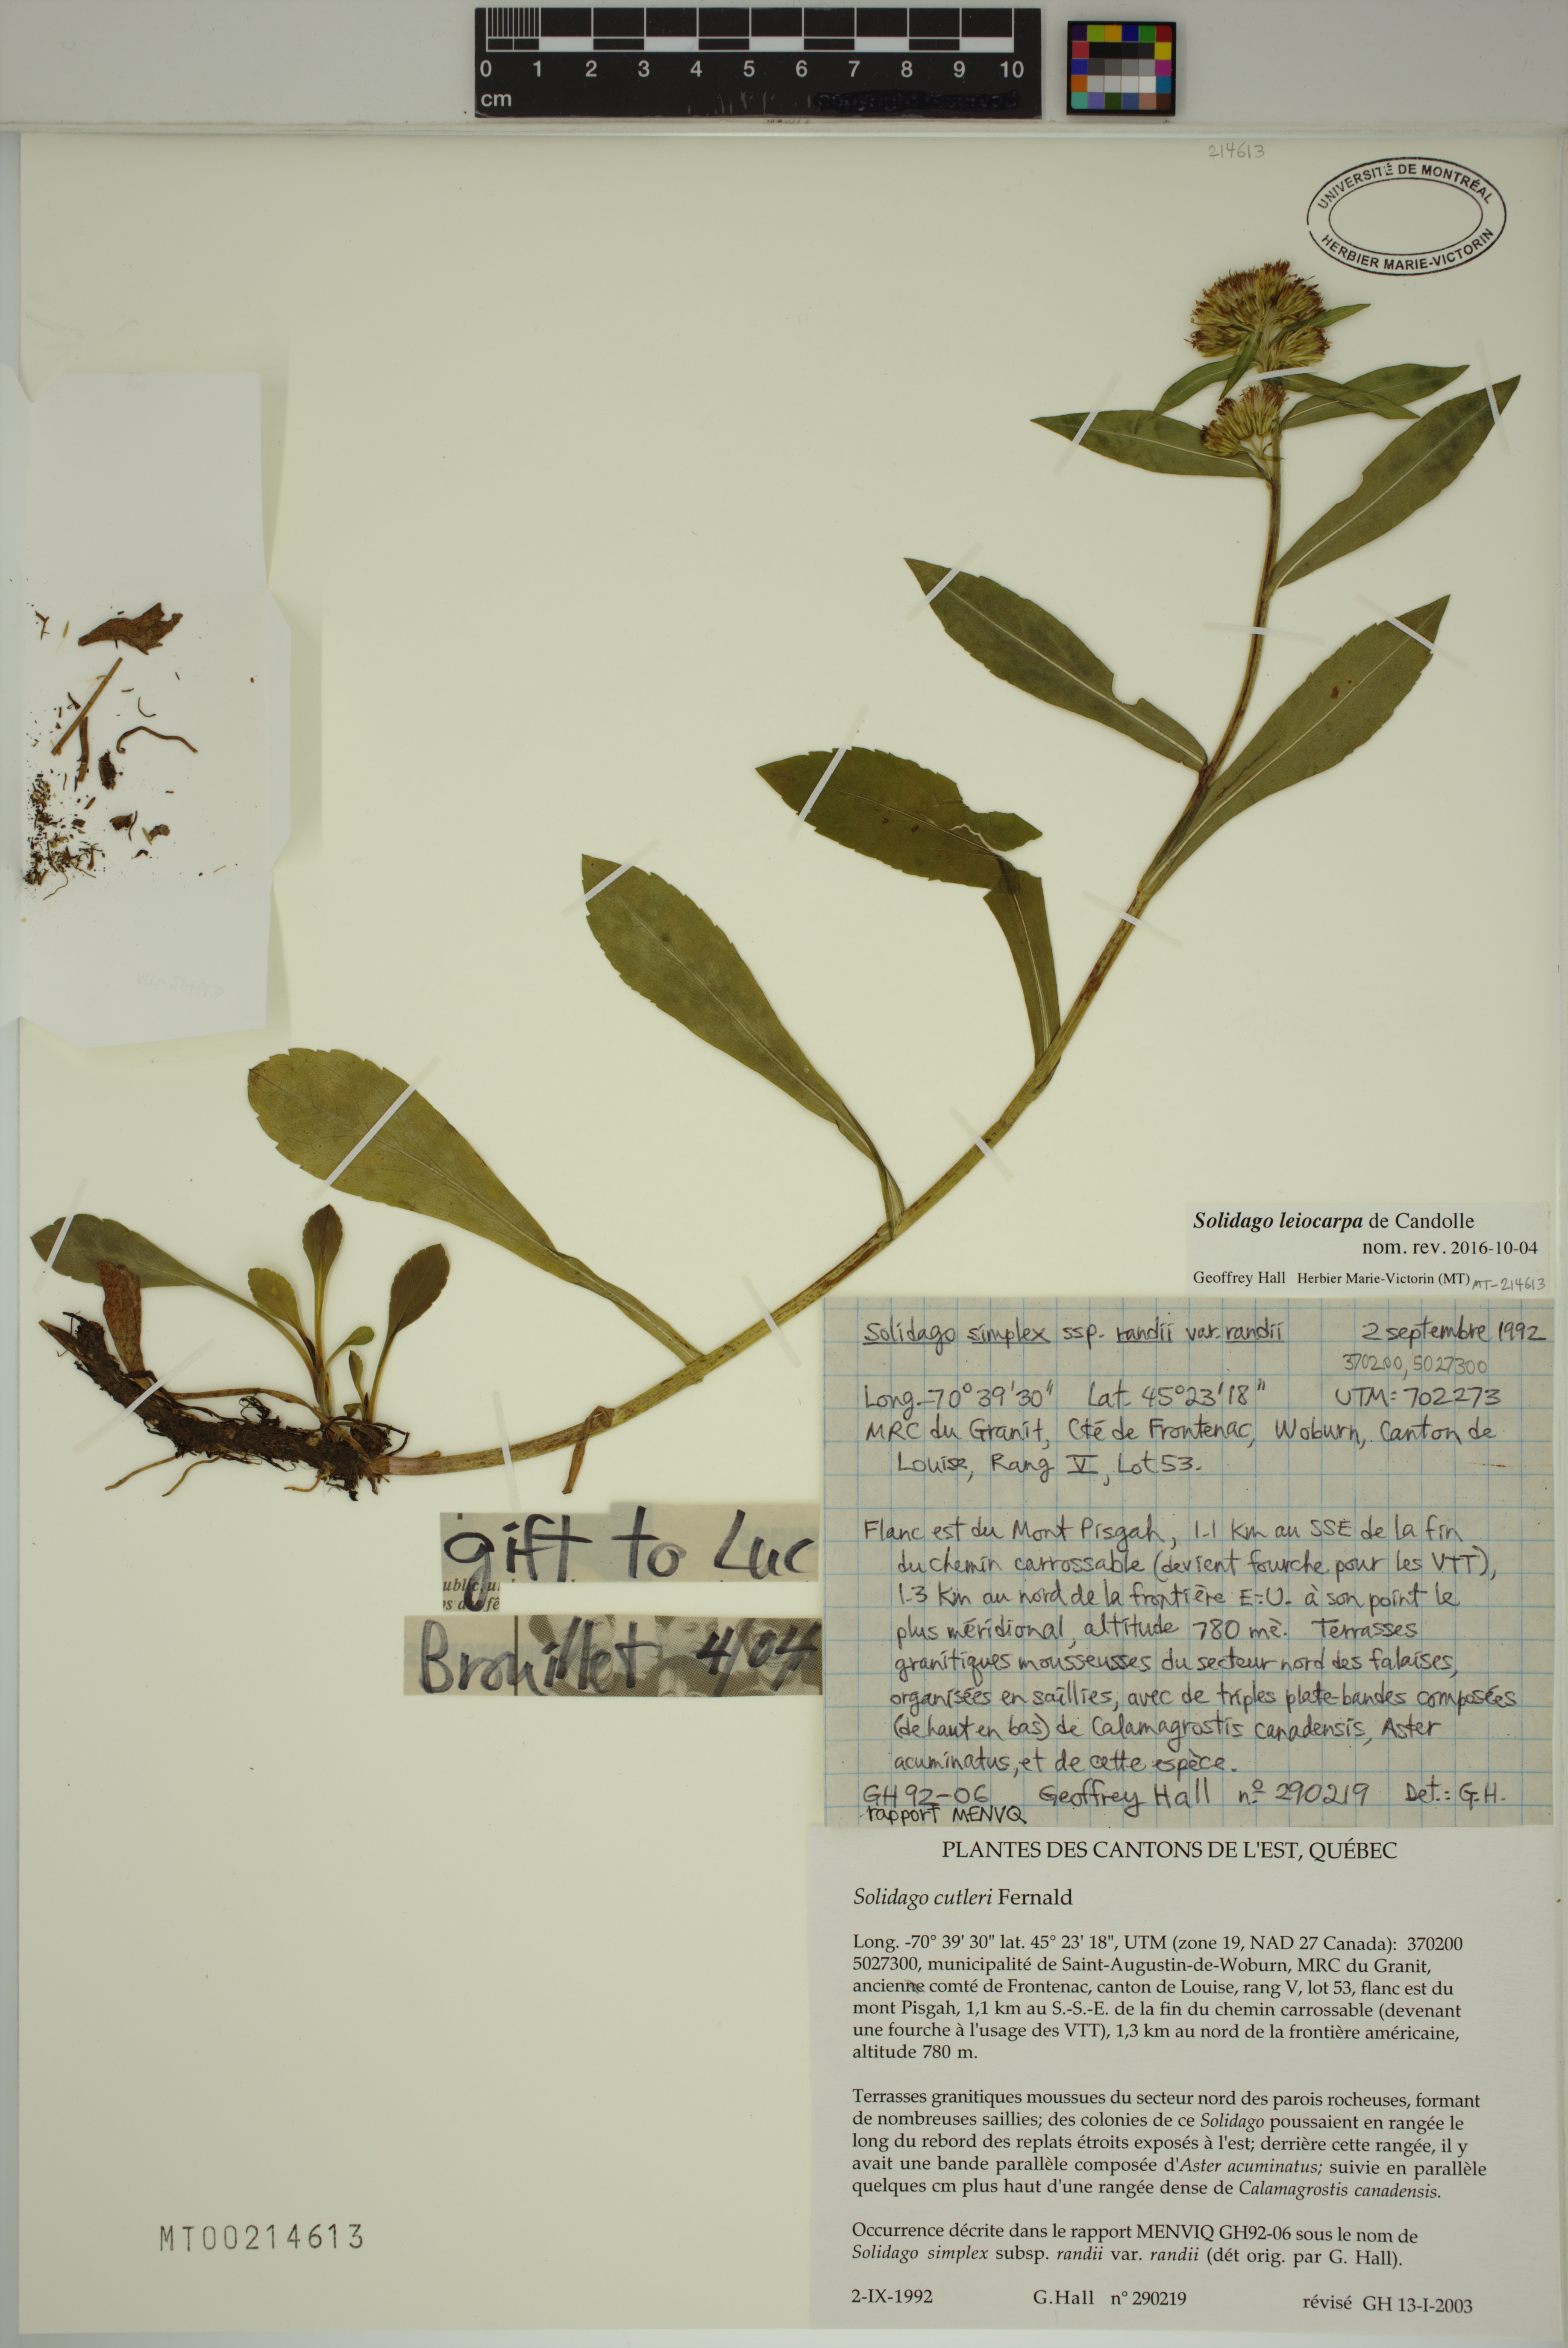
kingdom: Plantae
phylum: Tracheophyta
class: Magnoliopsida
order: Asterales
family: Asteraceae
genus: Solidago
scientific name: Solidago randii
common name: Rand's goldenrod
